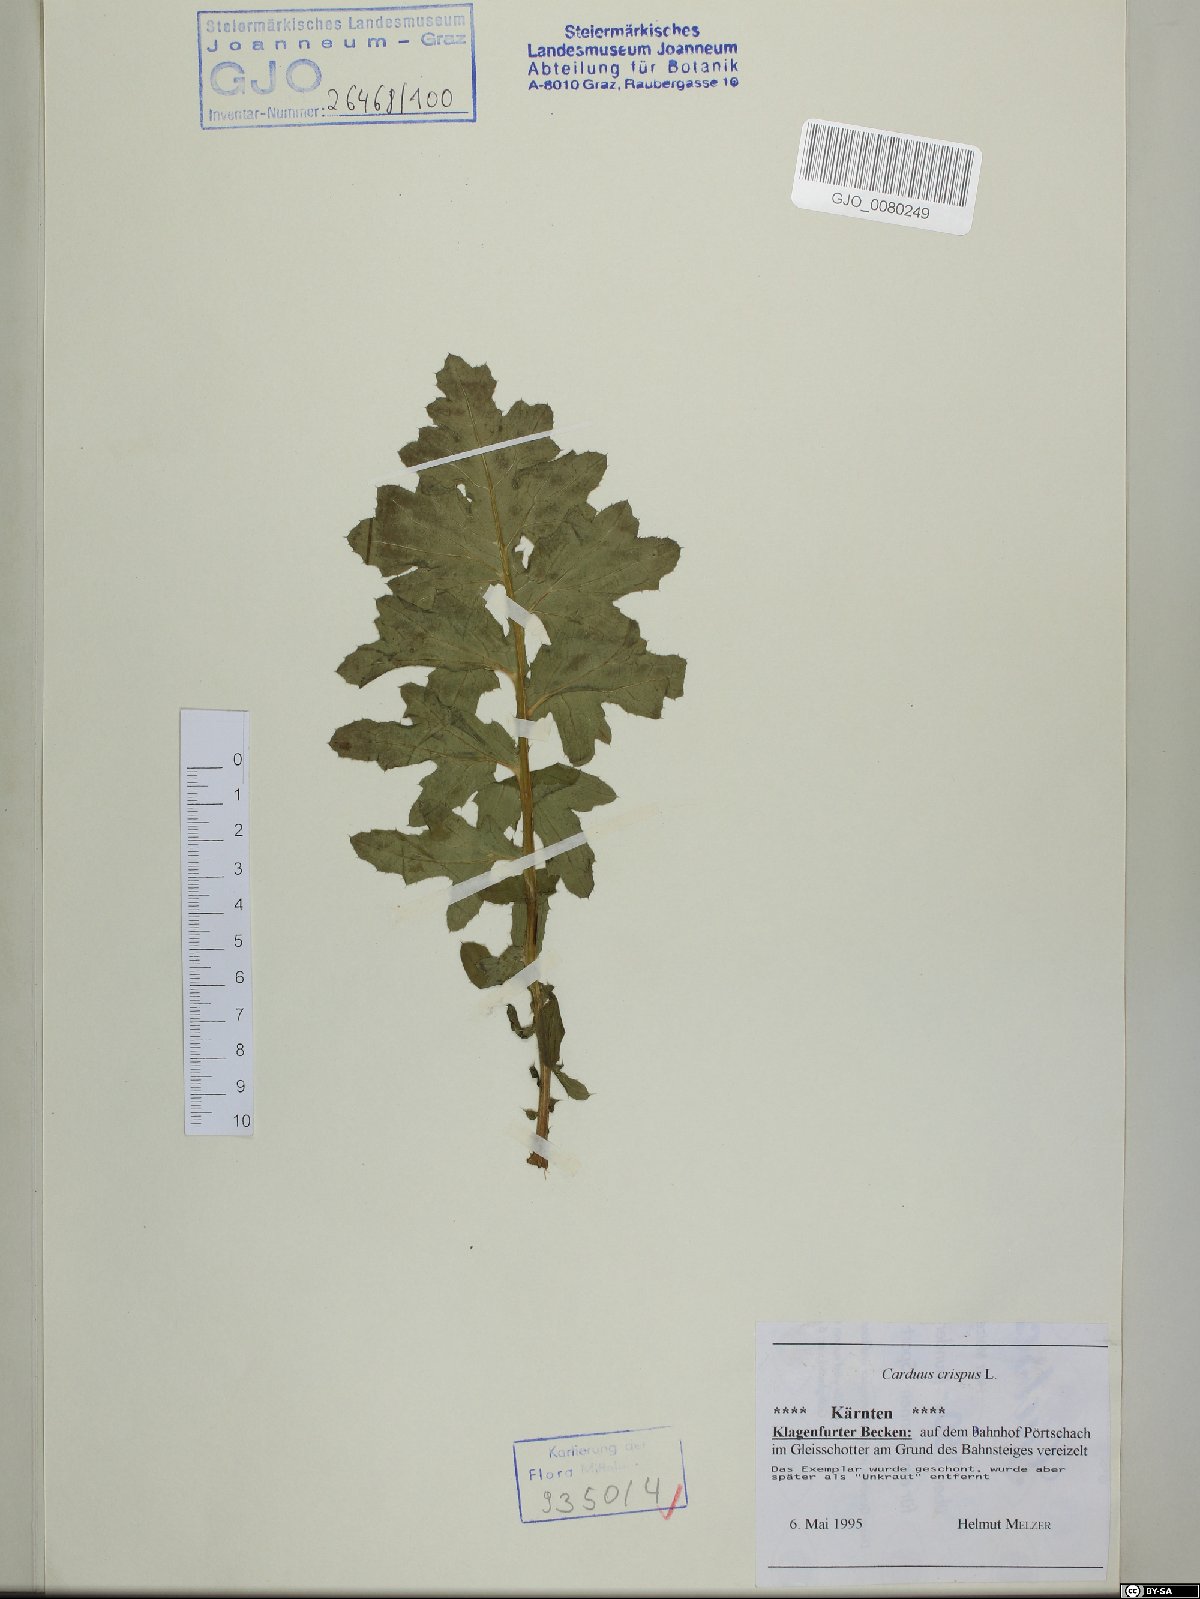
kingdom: Plantae
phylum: Tracheophyta
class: Magnoliopsida
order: Asterales
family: Asteraceae
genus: Carduus
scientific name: Carduus crispus
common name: Welted thistle
